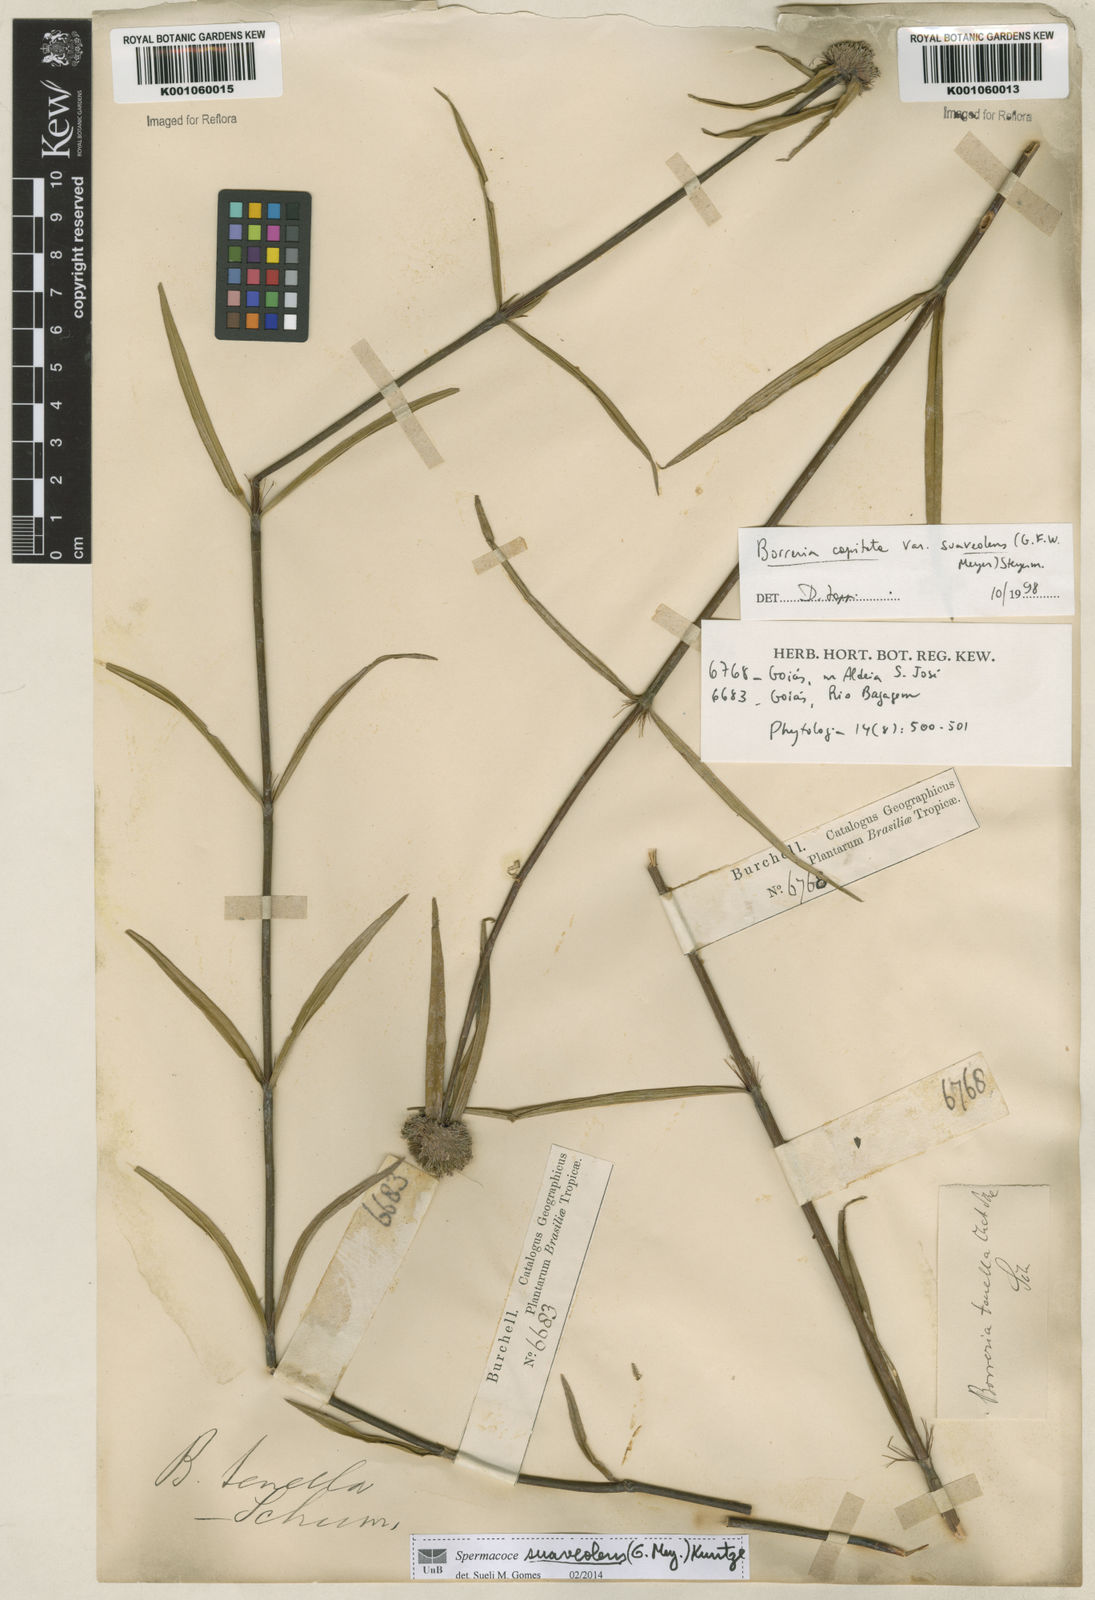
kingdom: Plantae
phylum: Tracheophyta
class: Magnoliopsida
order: Gentianales
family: Rubiaceae
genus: Spermacoce
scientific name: Spermacoce suaveolens
